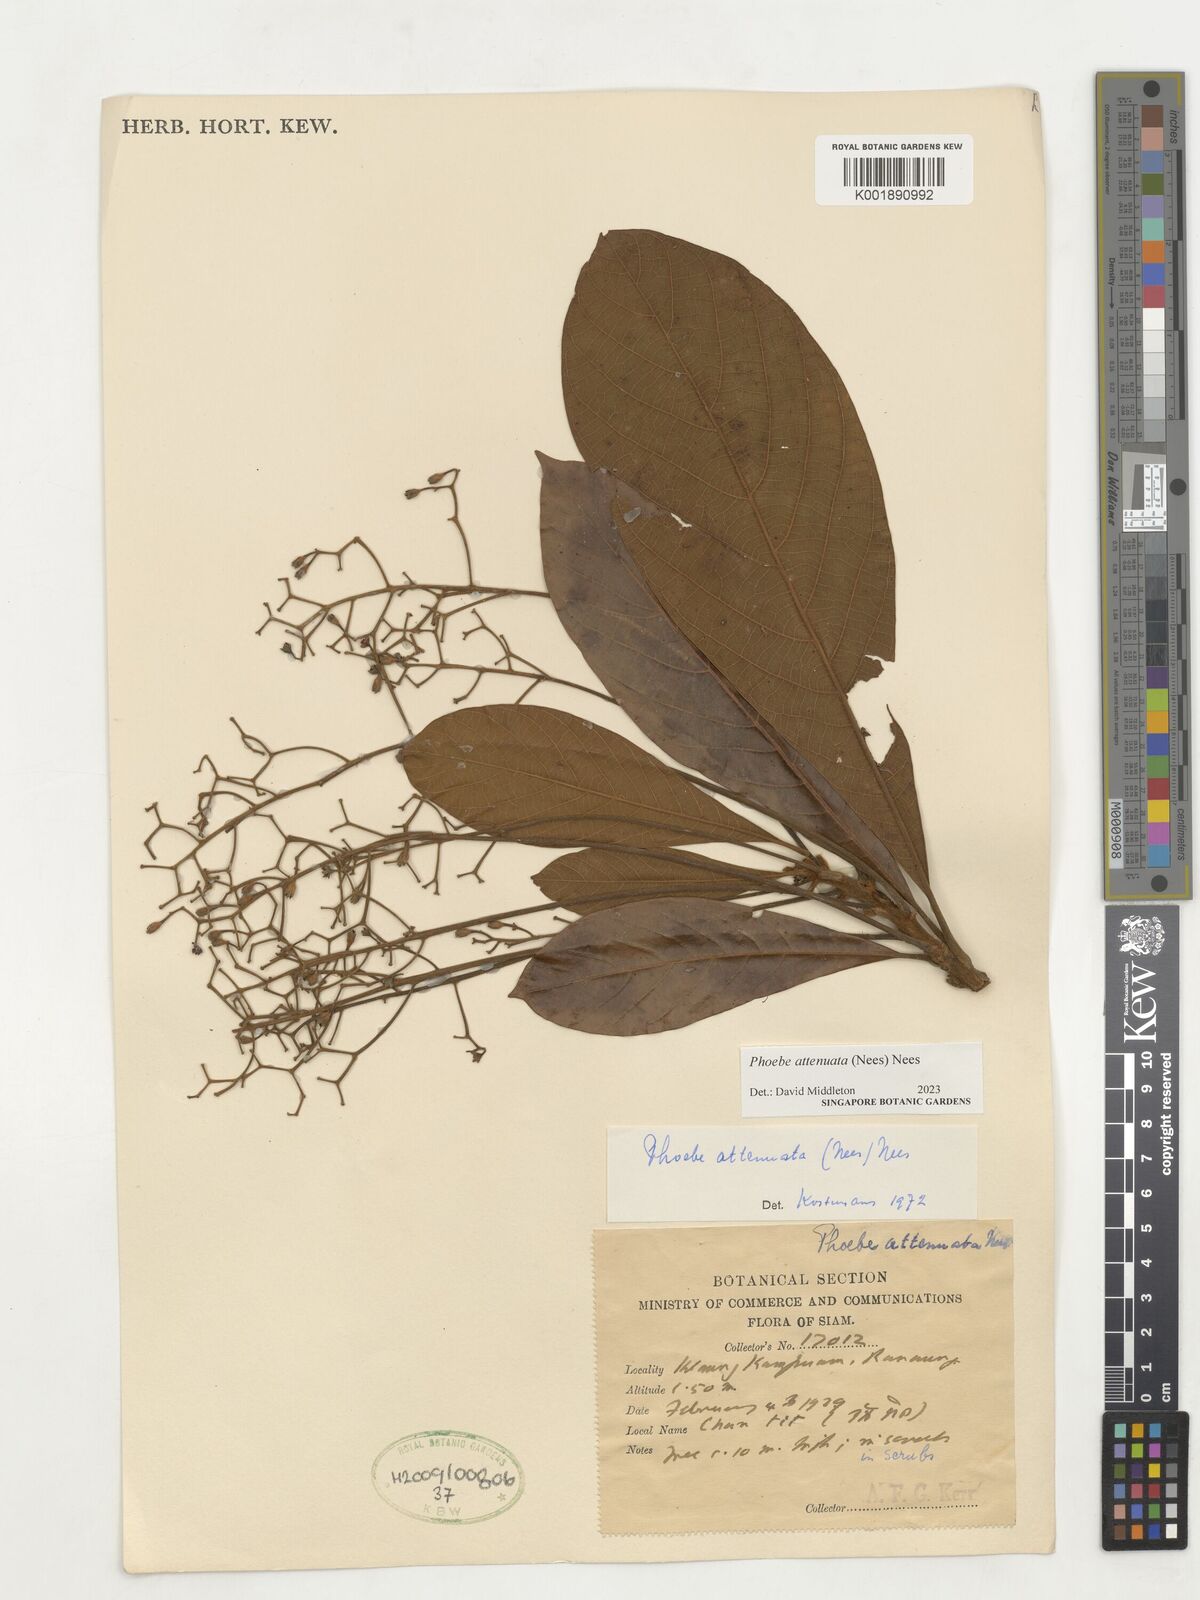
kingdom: Plantae
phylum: Tracheophyta
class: Magnoliopsida
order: Laurales
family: Lauraceae
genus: Phoebe
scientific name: Phoebe attenuata
